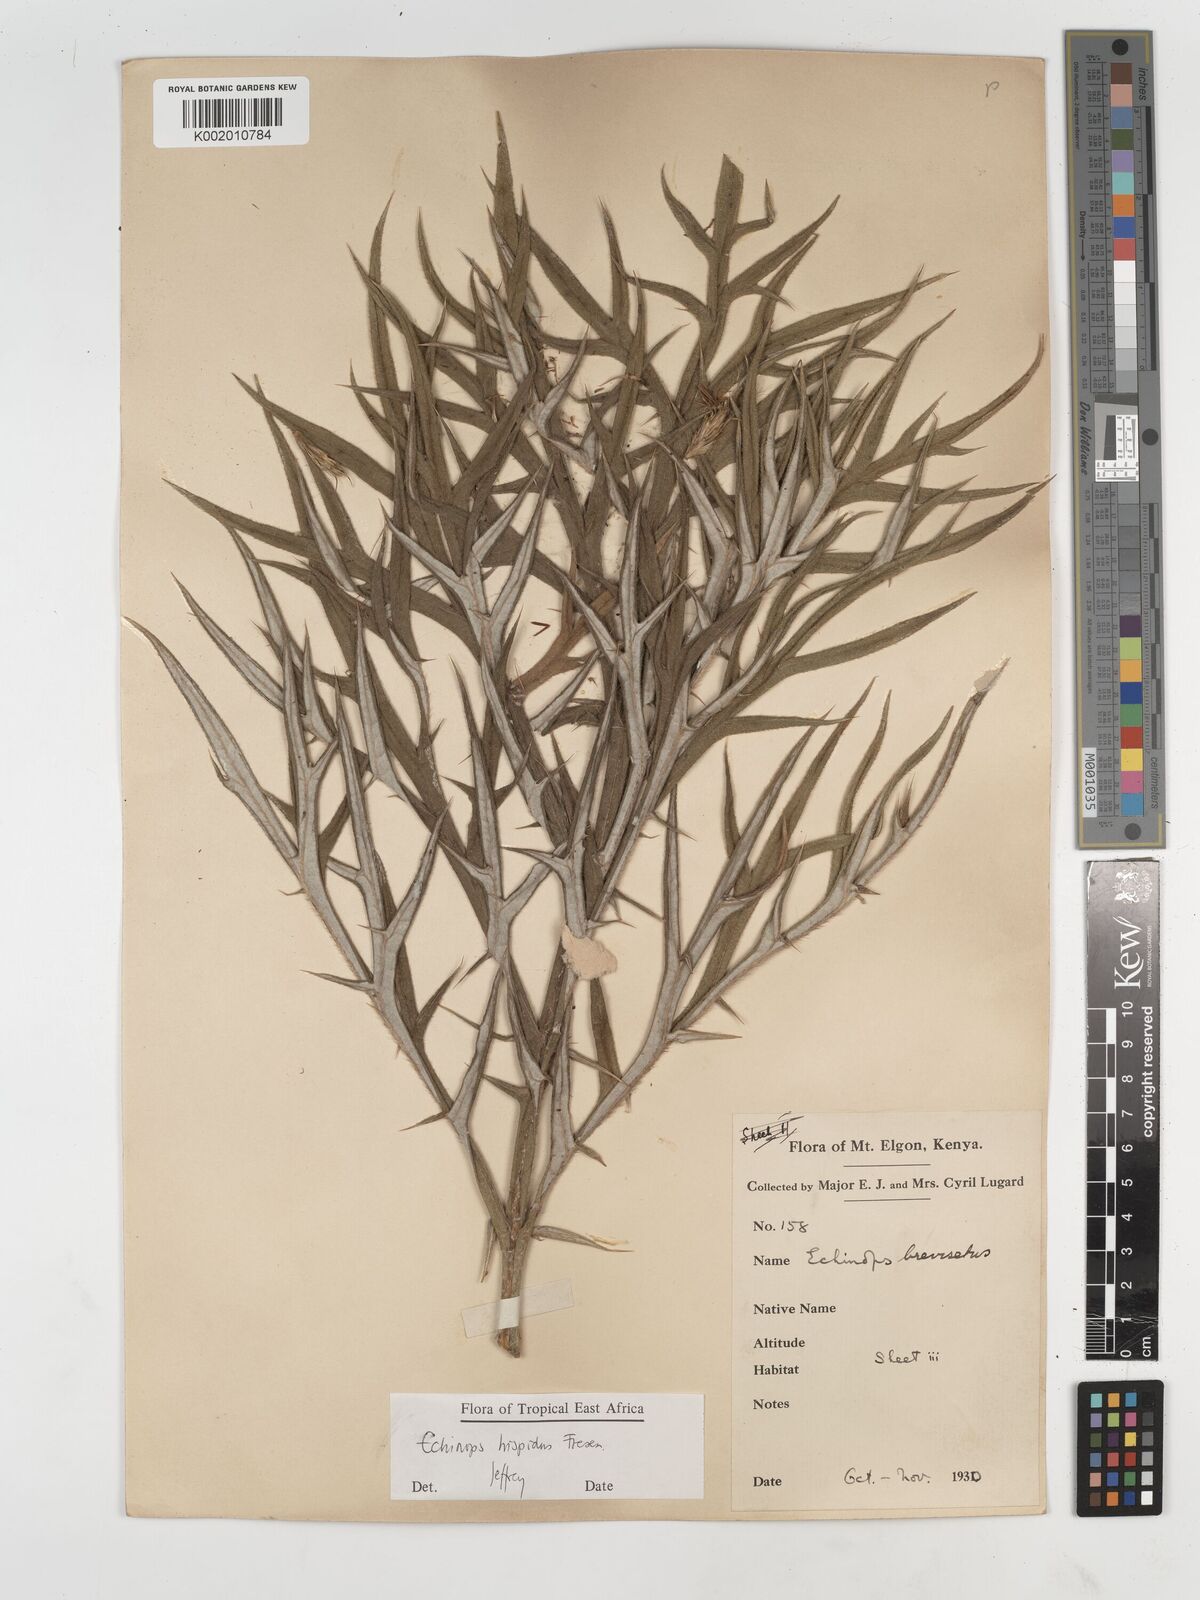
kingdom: Plantae
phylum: Tracheophyta
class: Magnoliopsida
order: Asterales
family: Asteraceae
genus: Echinops
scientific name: Echinops hispidus
